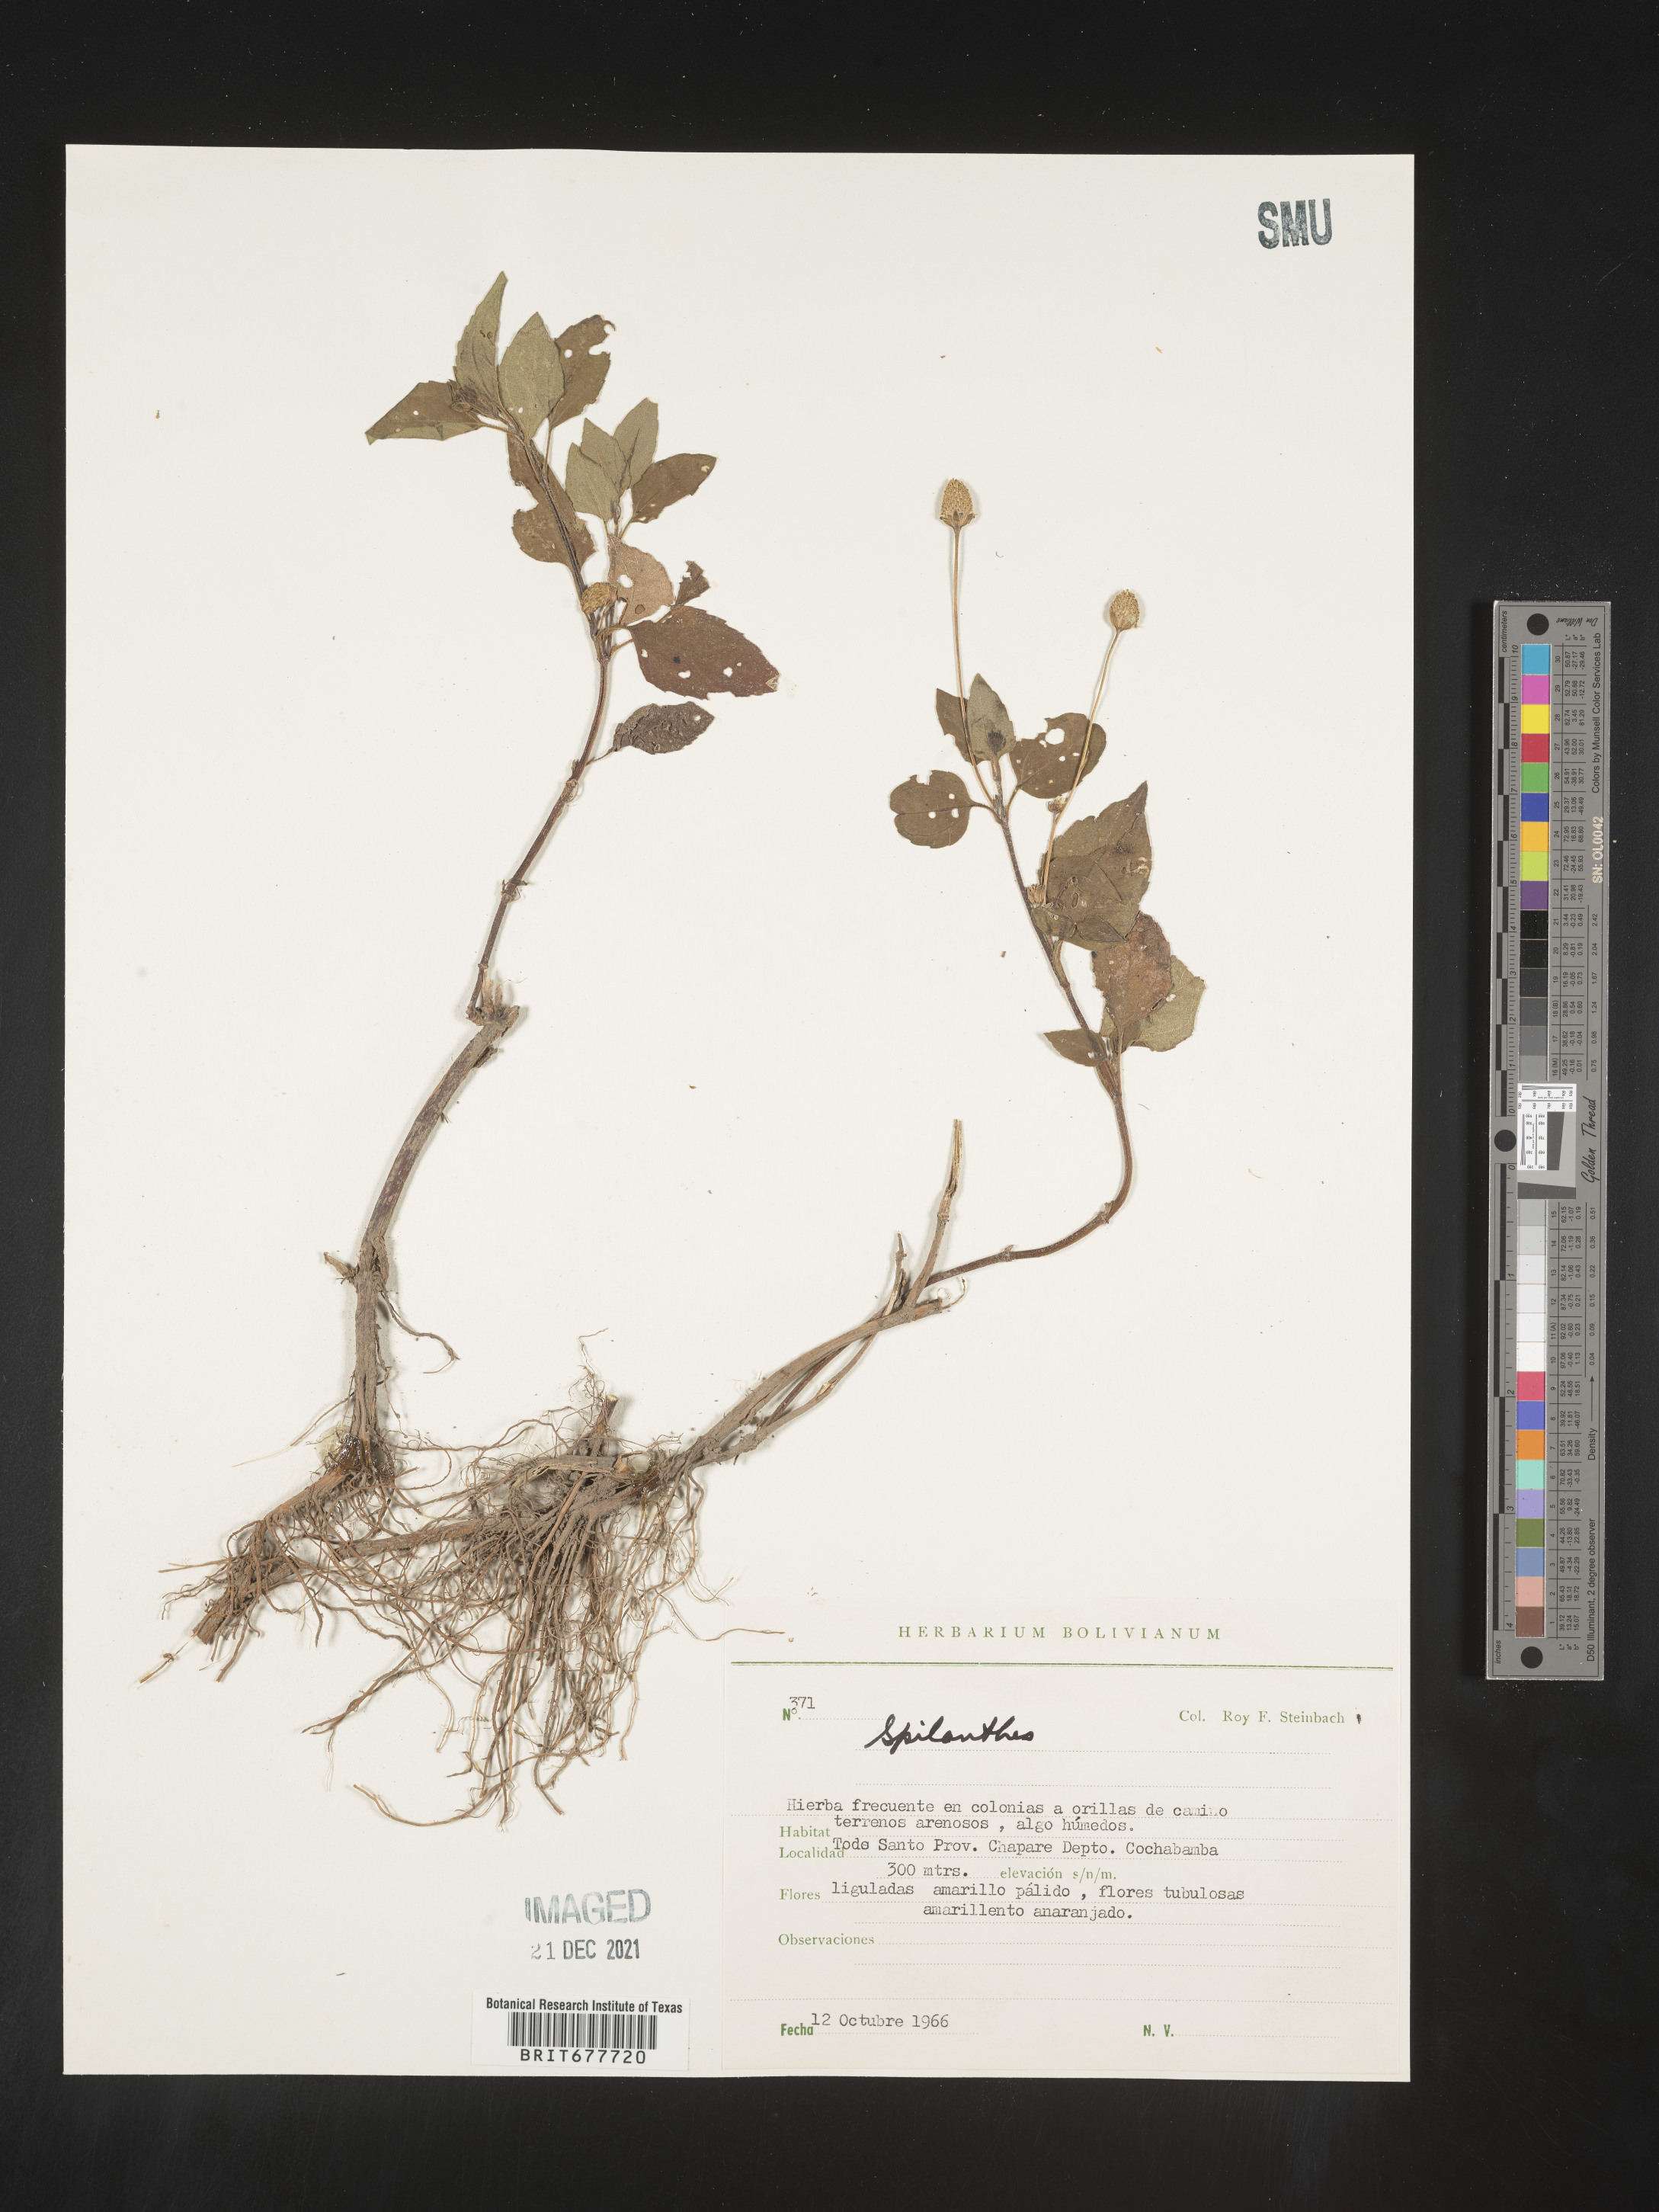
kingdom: Plantae
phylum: Tracheophyta
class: Magnoliopsida
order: Asterales
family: Asteraceae
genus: Spilanthes
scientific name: Spilanthes
